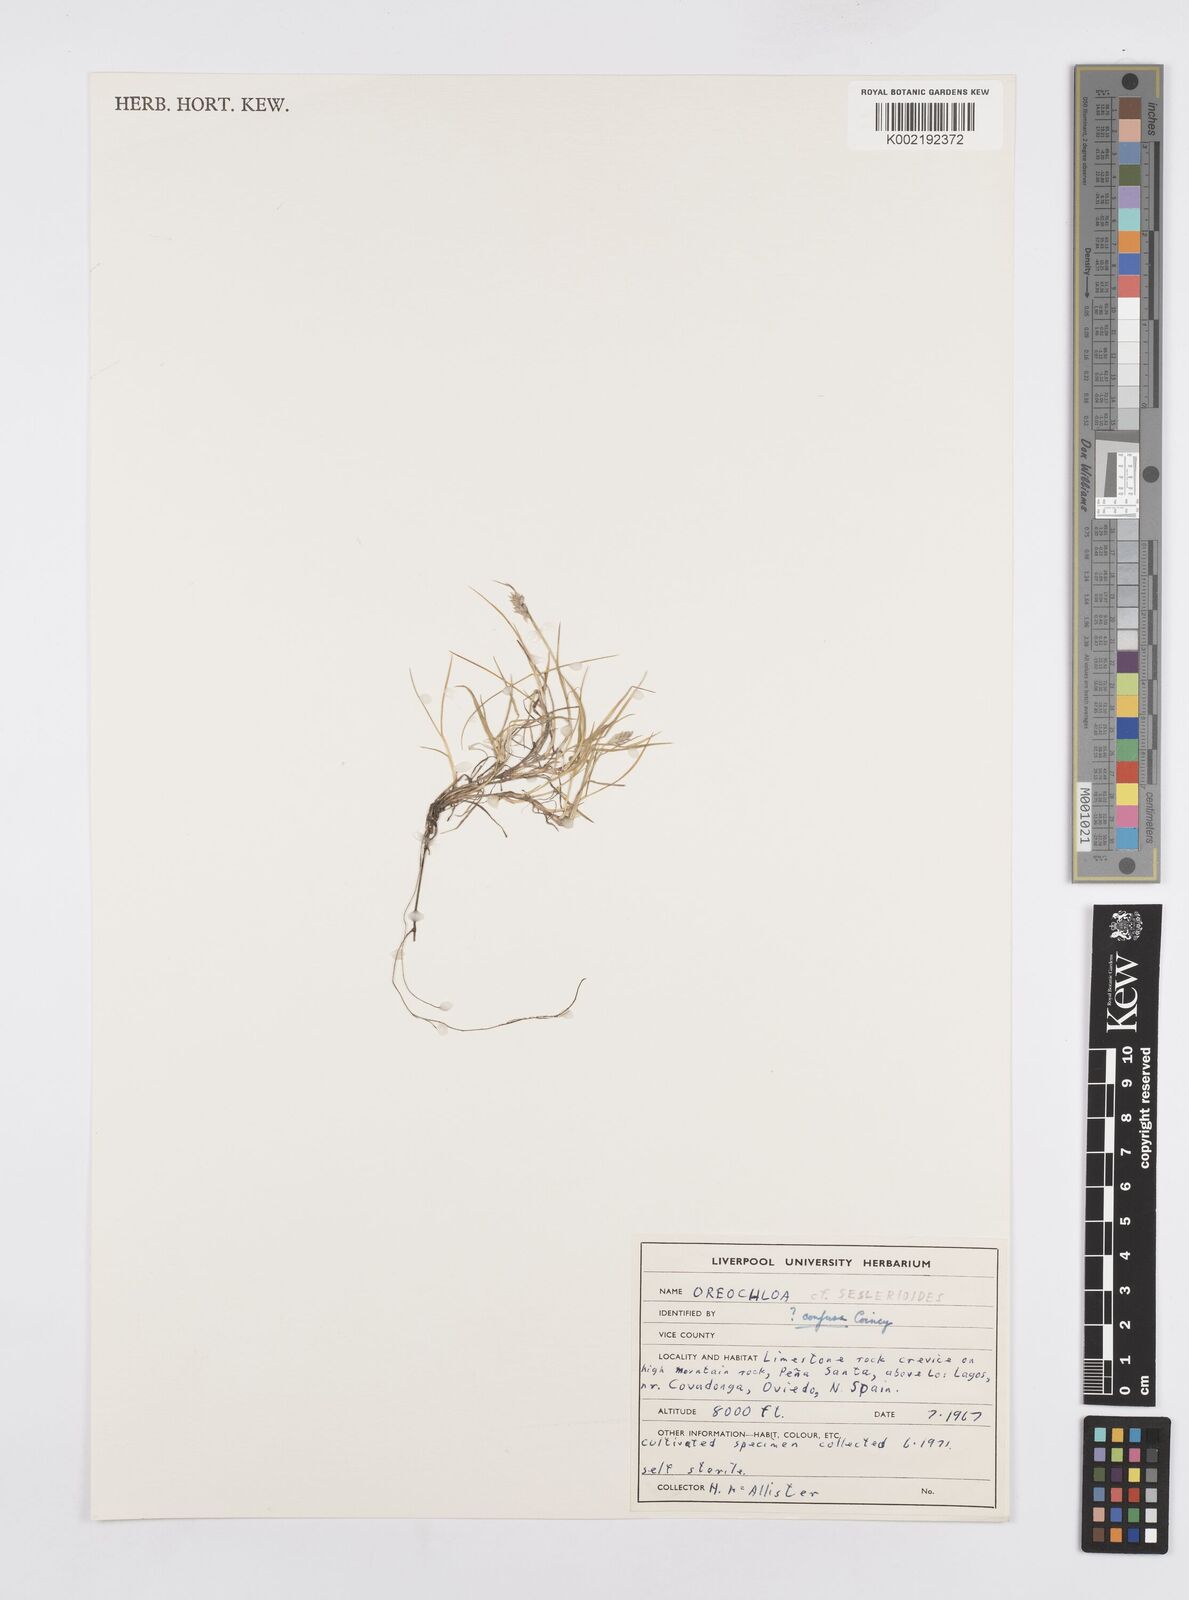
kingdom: Plantae
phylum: Tracheophyta
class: Liliopsida
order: Poales
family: Poaceae
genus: Oreochloa
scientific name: Oreochloa confusa
